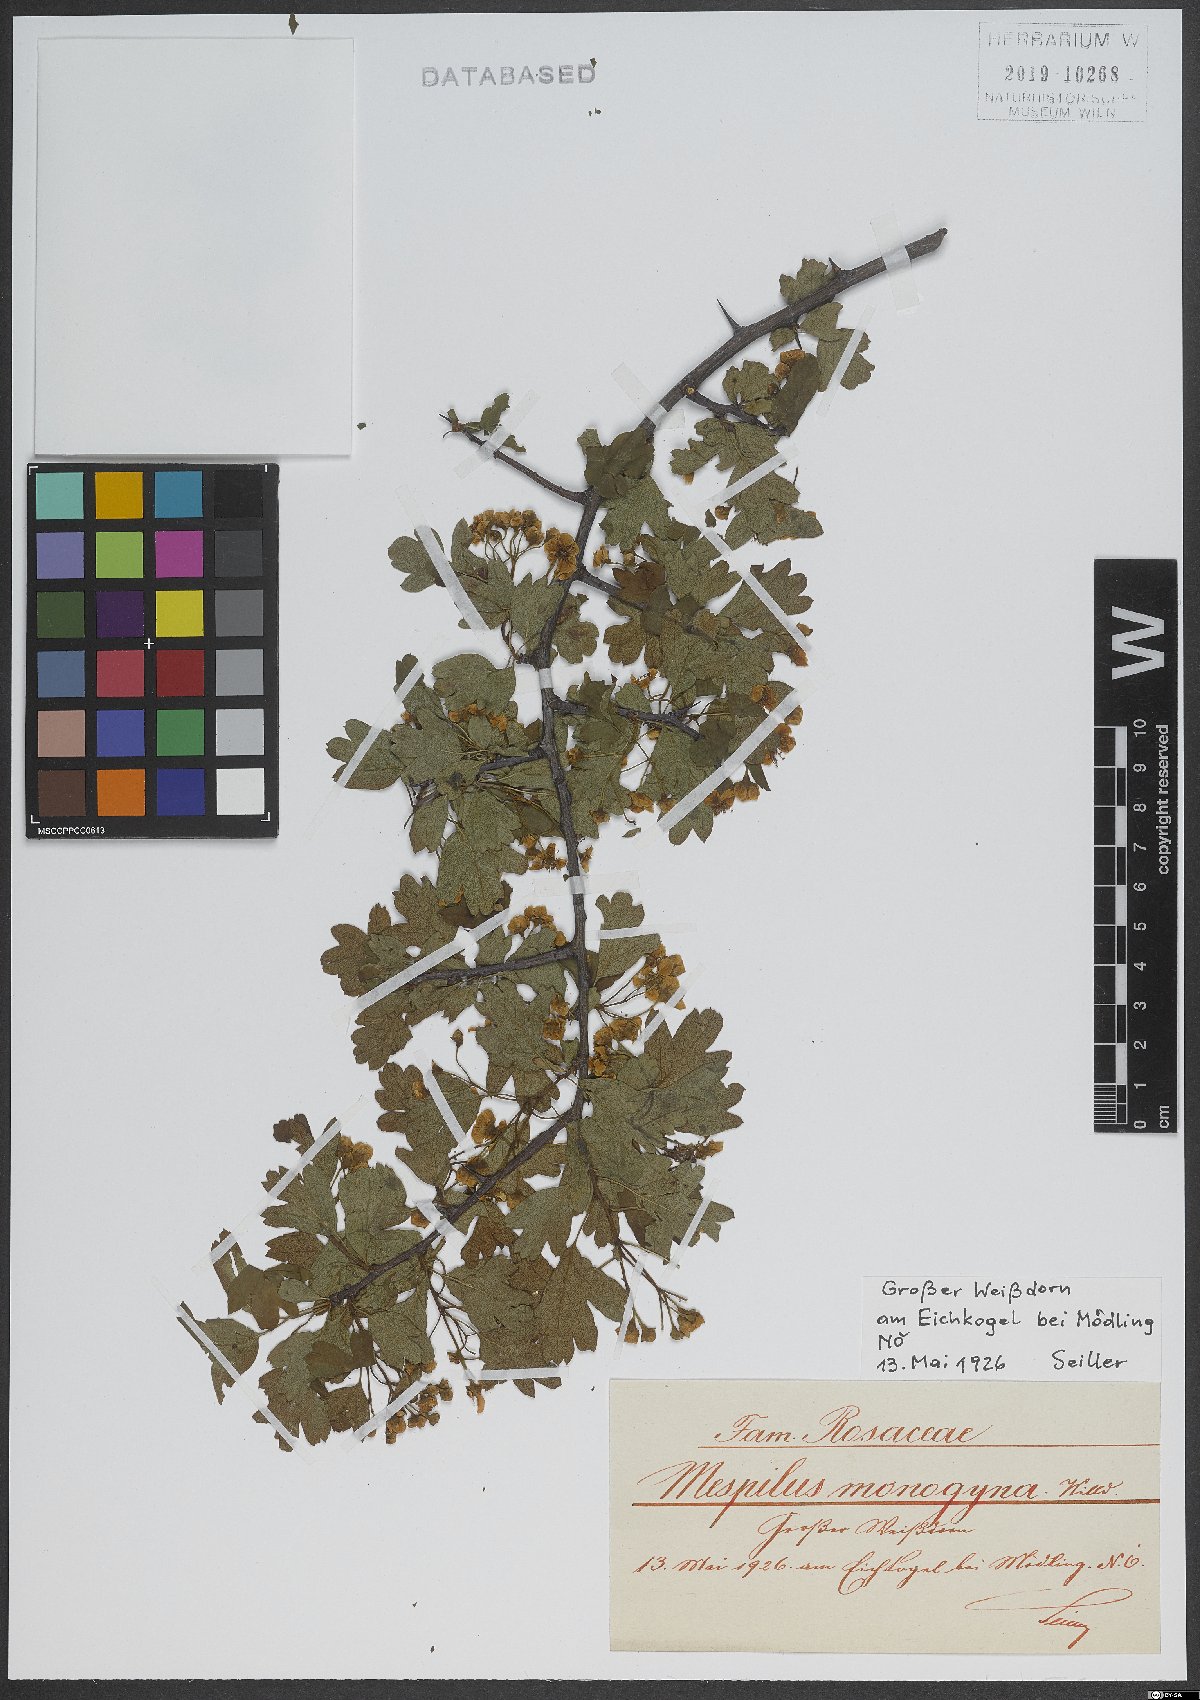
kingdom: Plantae
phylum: Tracheophyta
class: Magnoliopsida
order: Rosales
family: Rosaceae
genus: Crataegus
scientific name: Crataegus monogyna
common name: Hawthorn
